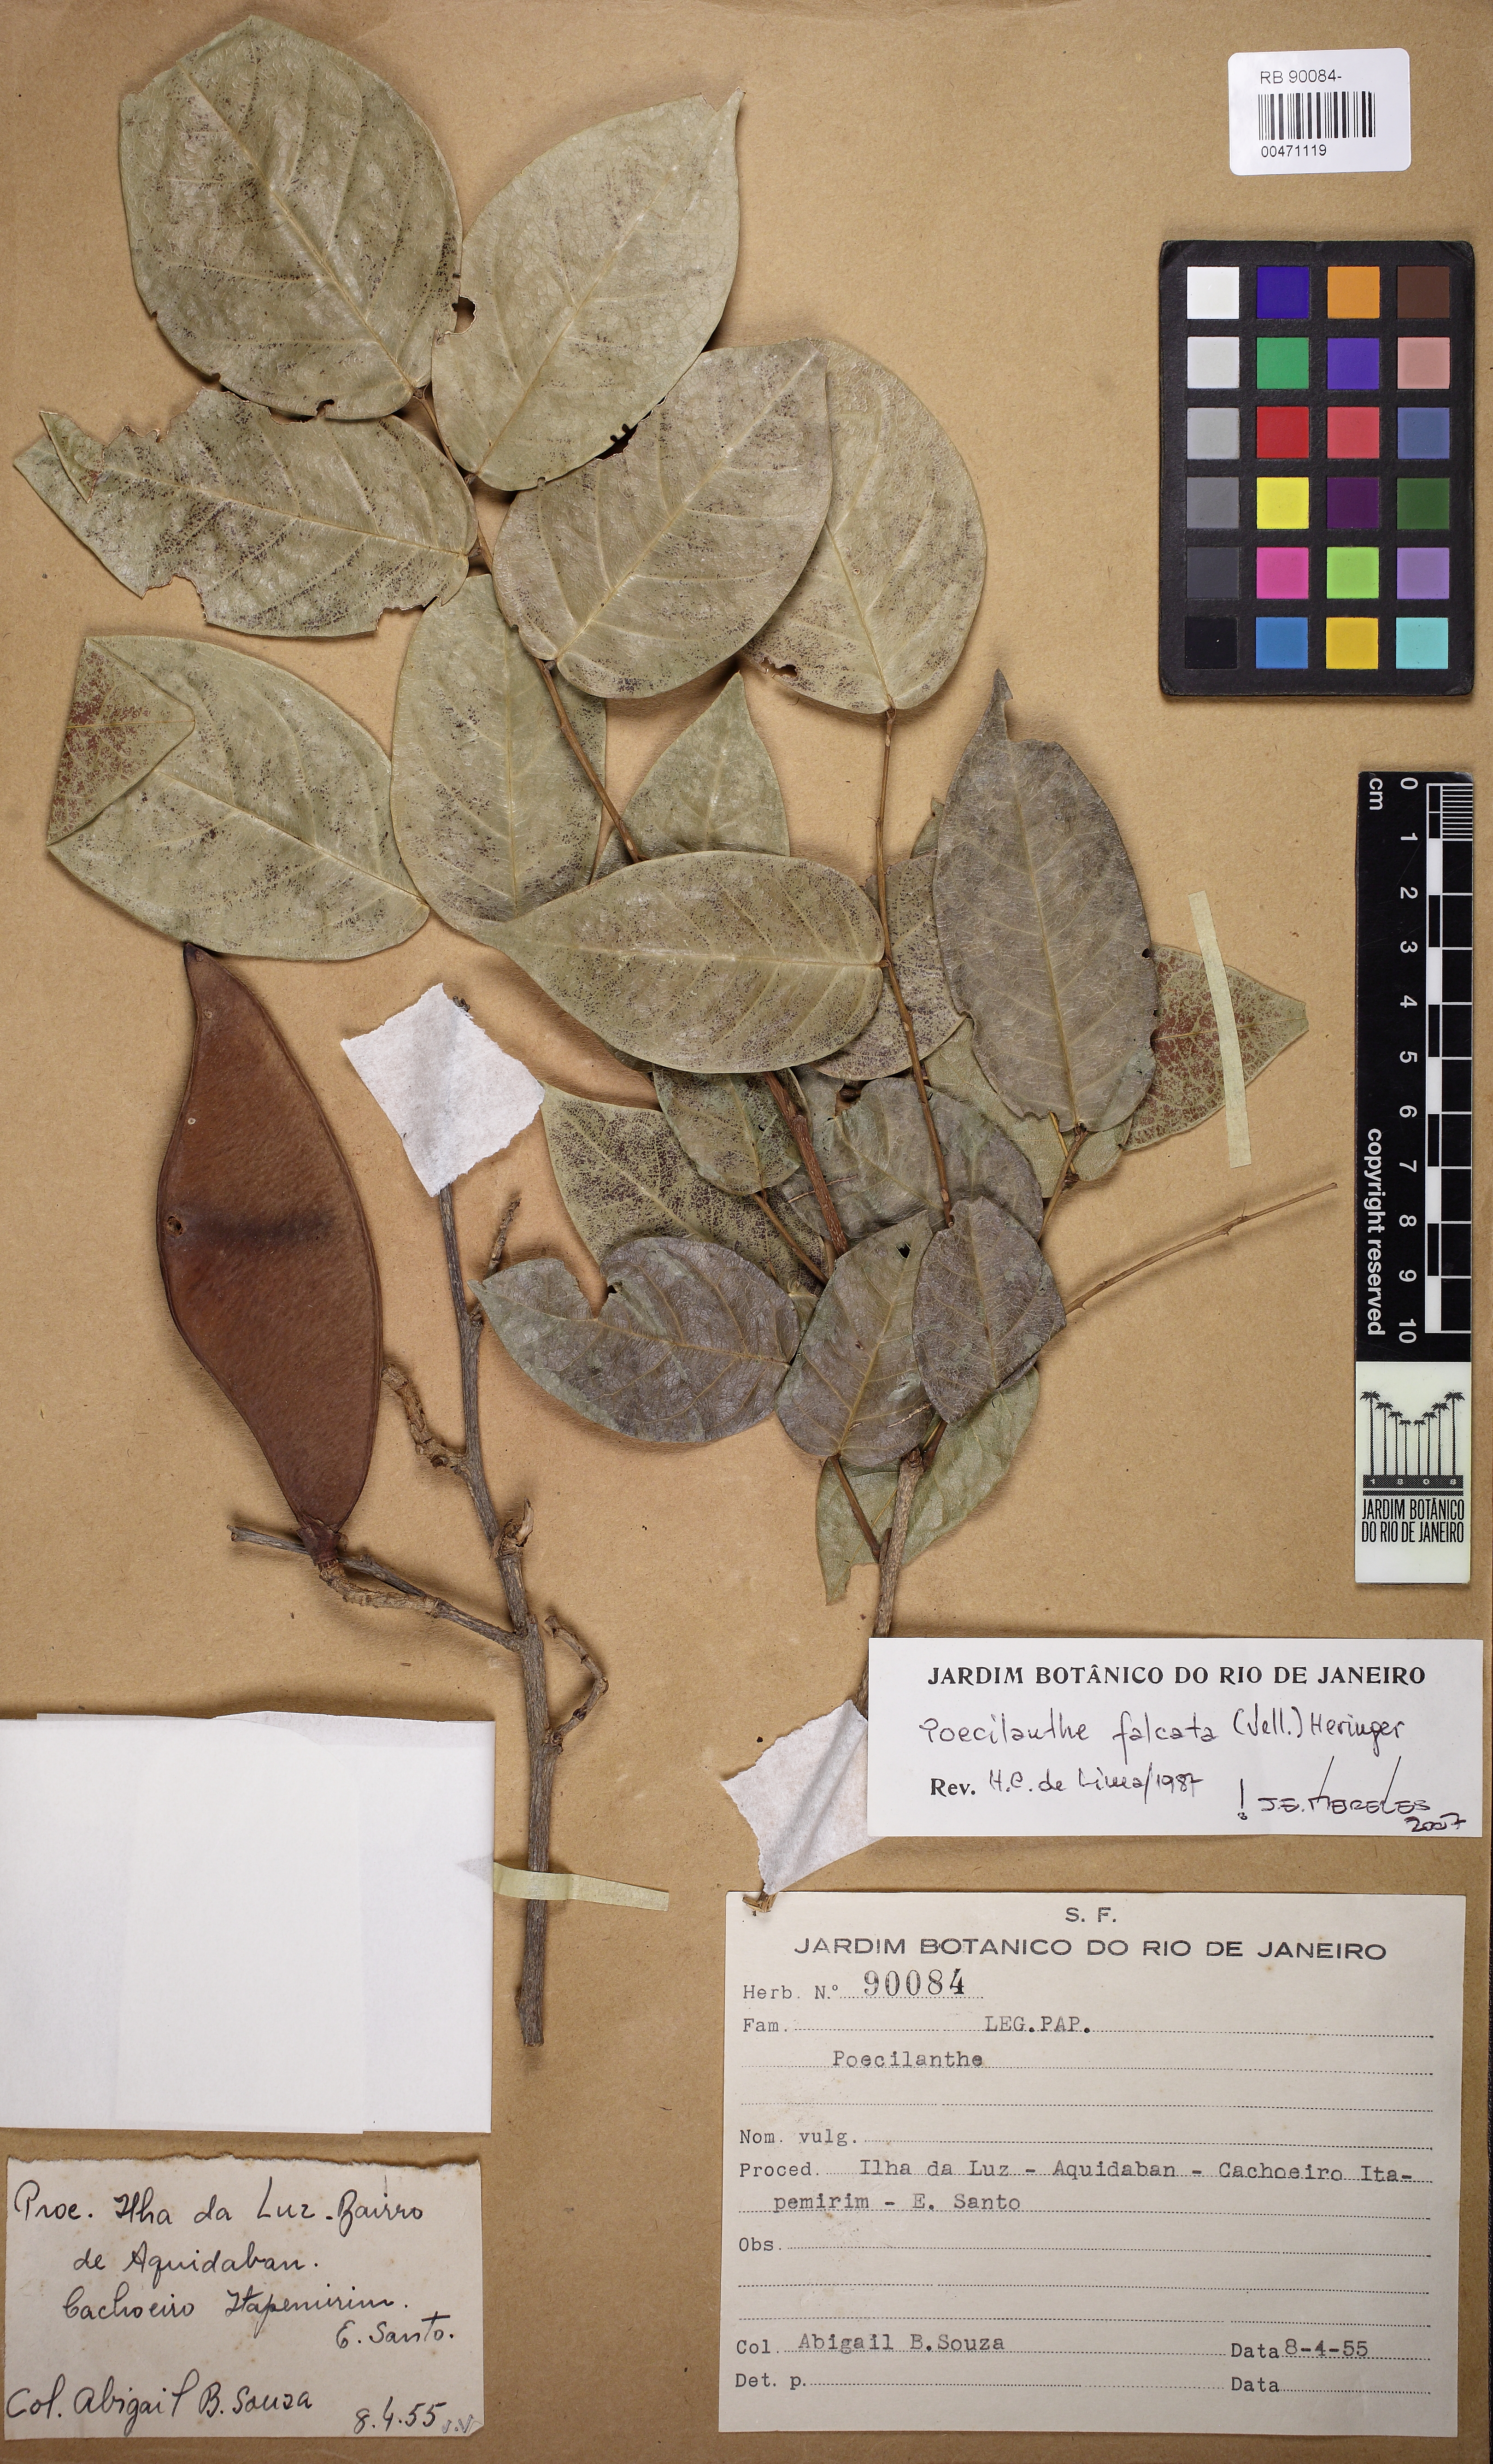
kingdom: Plantae
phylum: Tracheophyta
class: Magnoliopsida
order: Fabales
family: Fabaceae
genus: Poecilanthe
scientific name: Poecilanthe falcata
